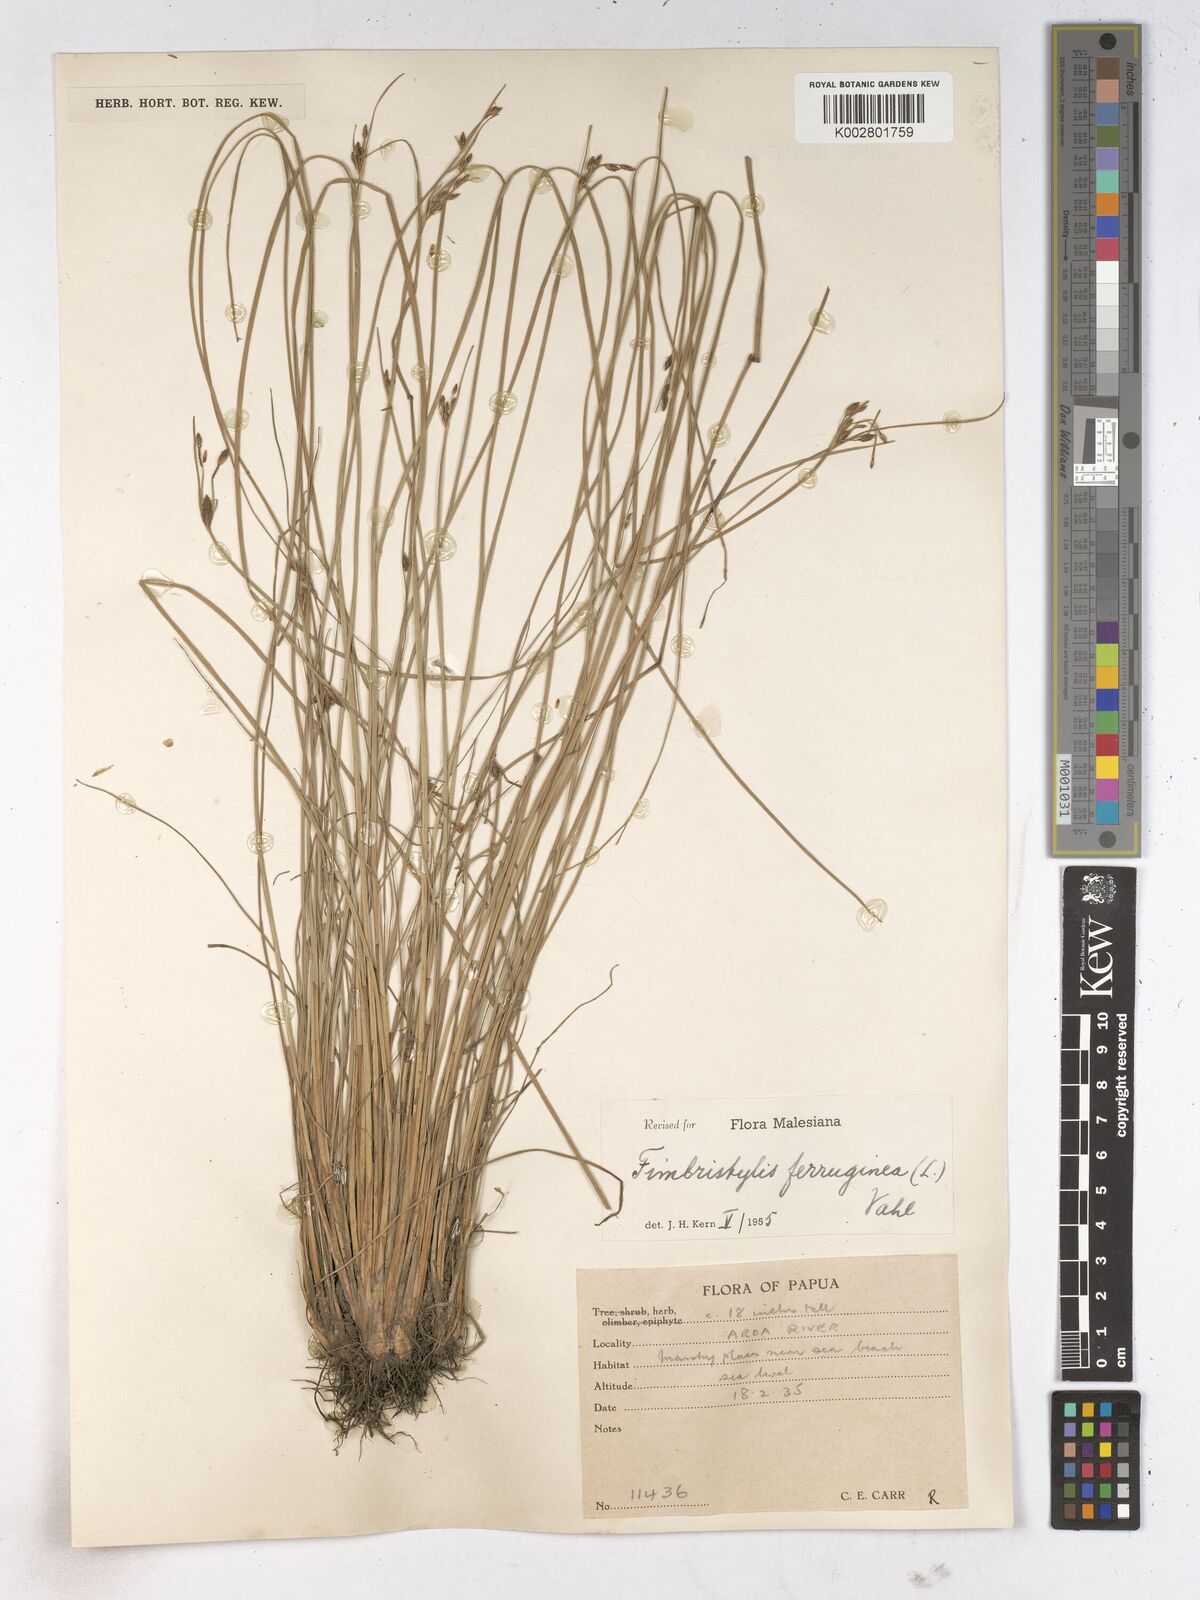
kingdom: Plantae
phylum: Tracheophyta
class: Liliopsida
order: Poales
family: Cyperaceae
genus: Fimbristylis
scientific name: Fimbristylis ferruginea
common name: West indian fimbry
